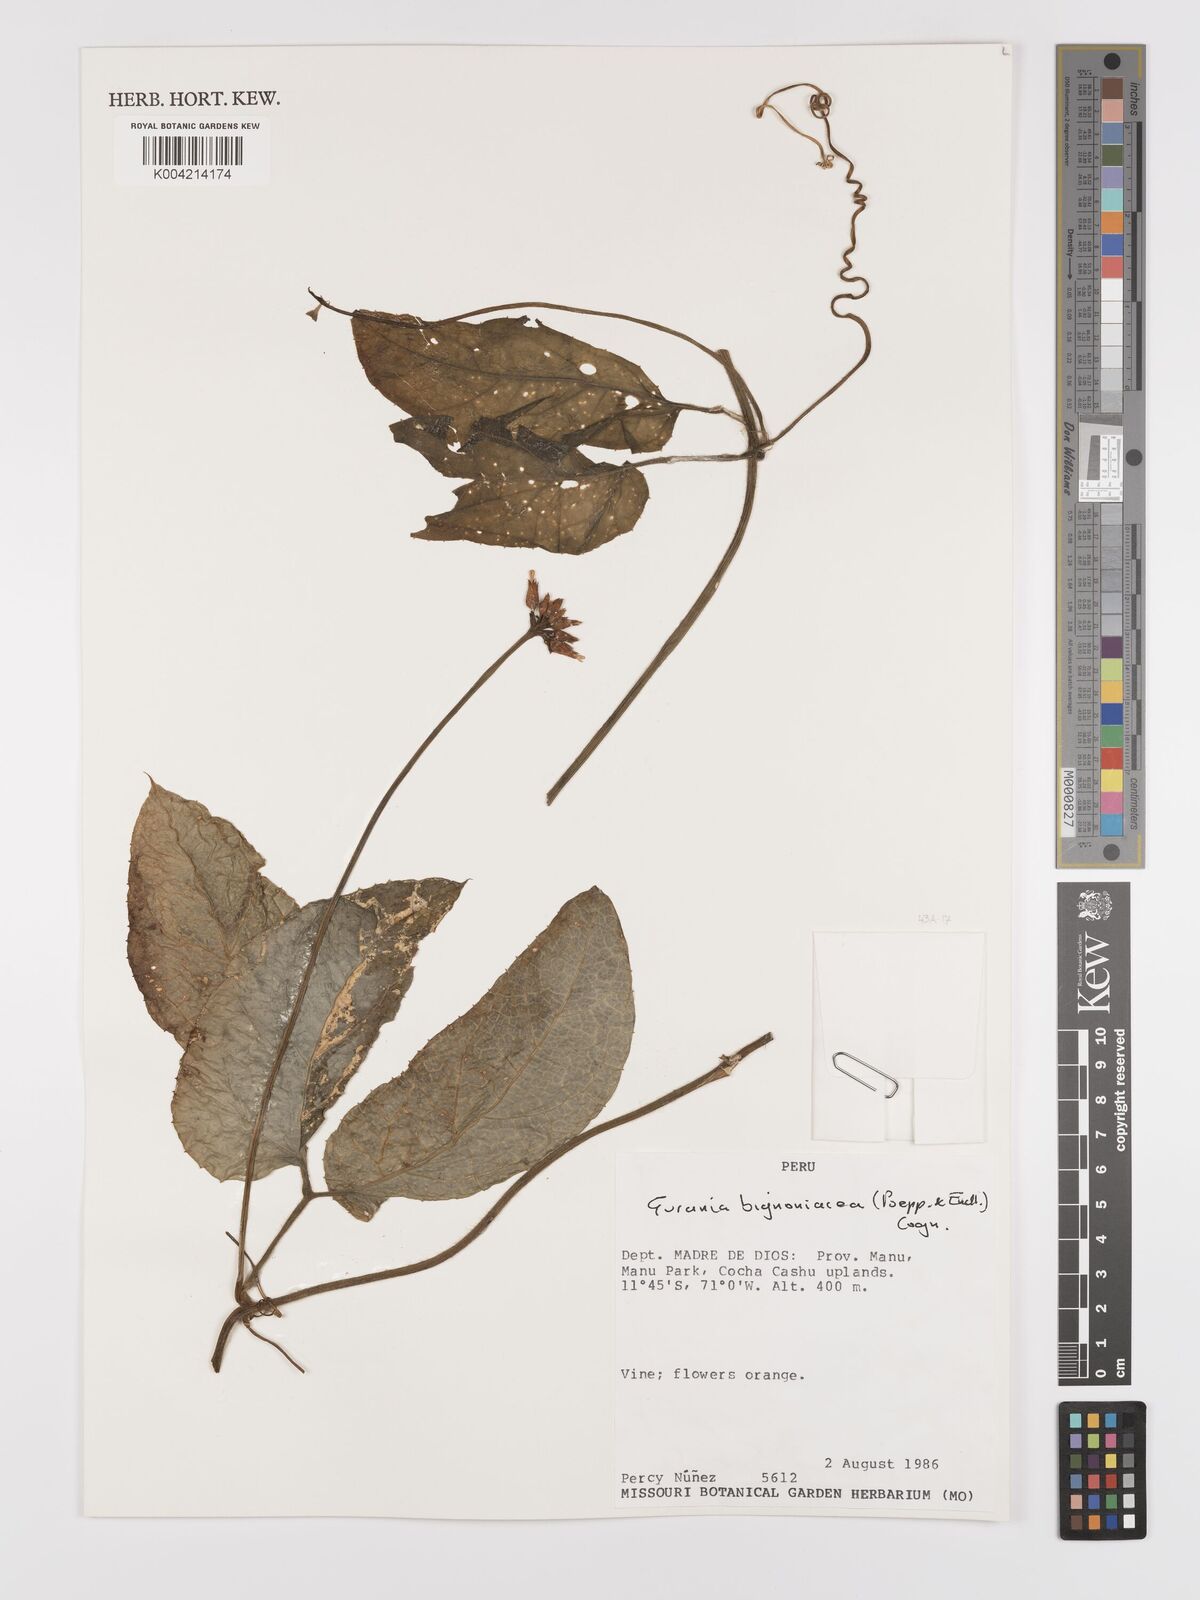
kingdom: Plantae
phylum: Tracheophyta
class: Magnoliopsida
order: Cucurbitales
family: Cucurbitaceae
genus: Gurania
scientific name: Gurania bignoniacea
